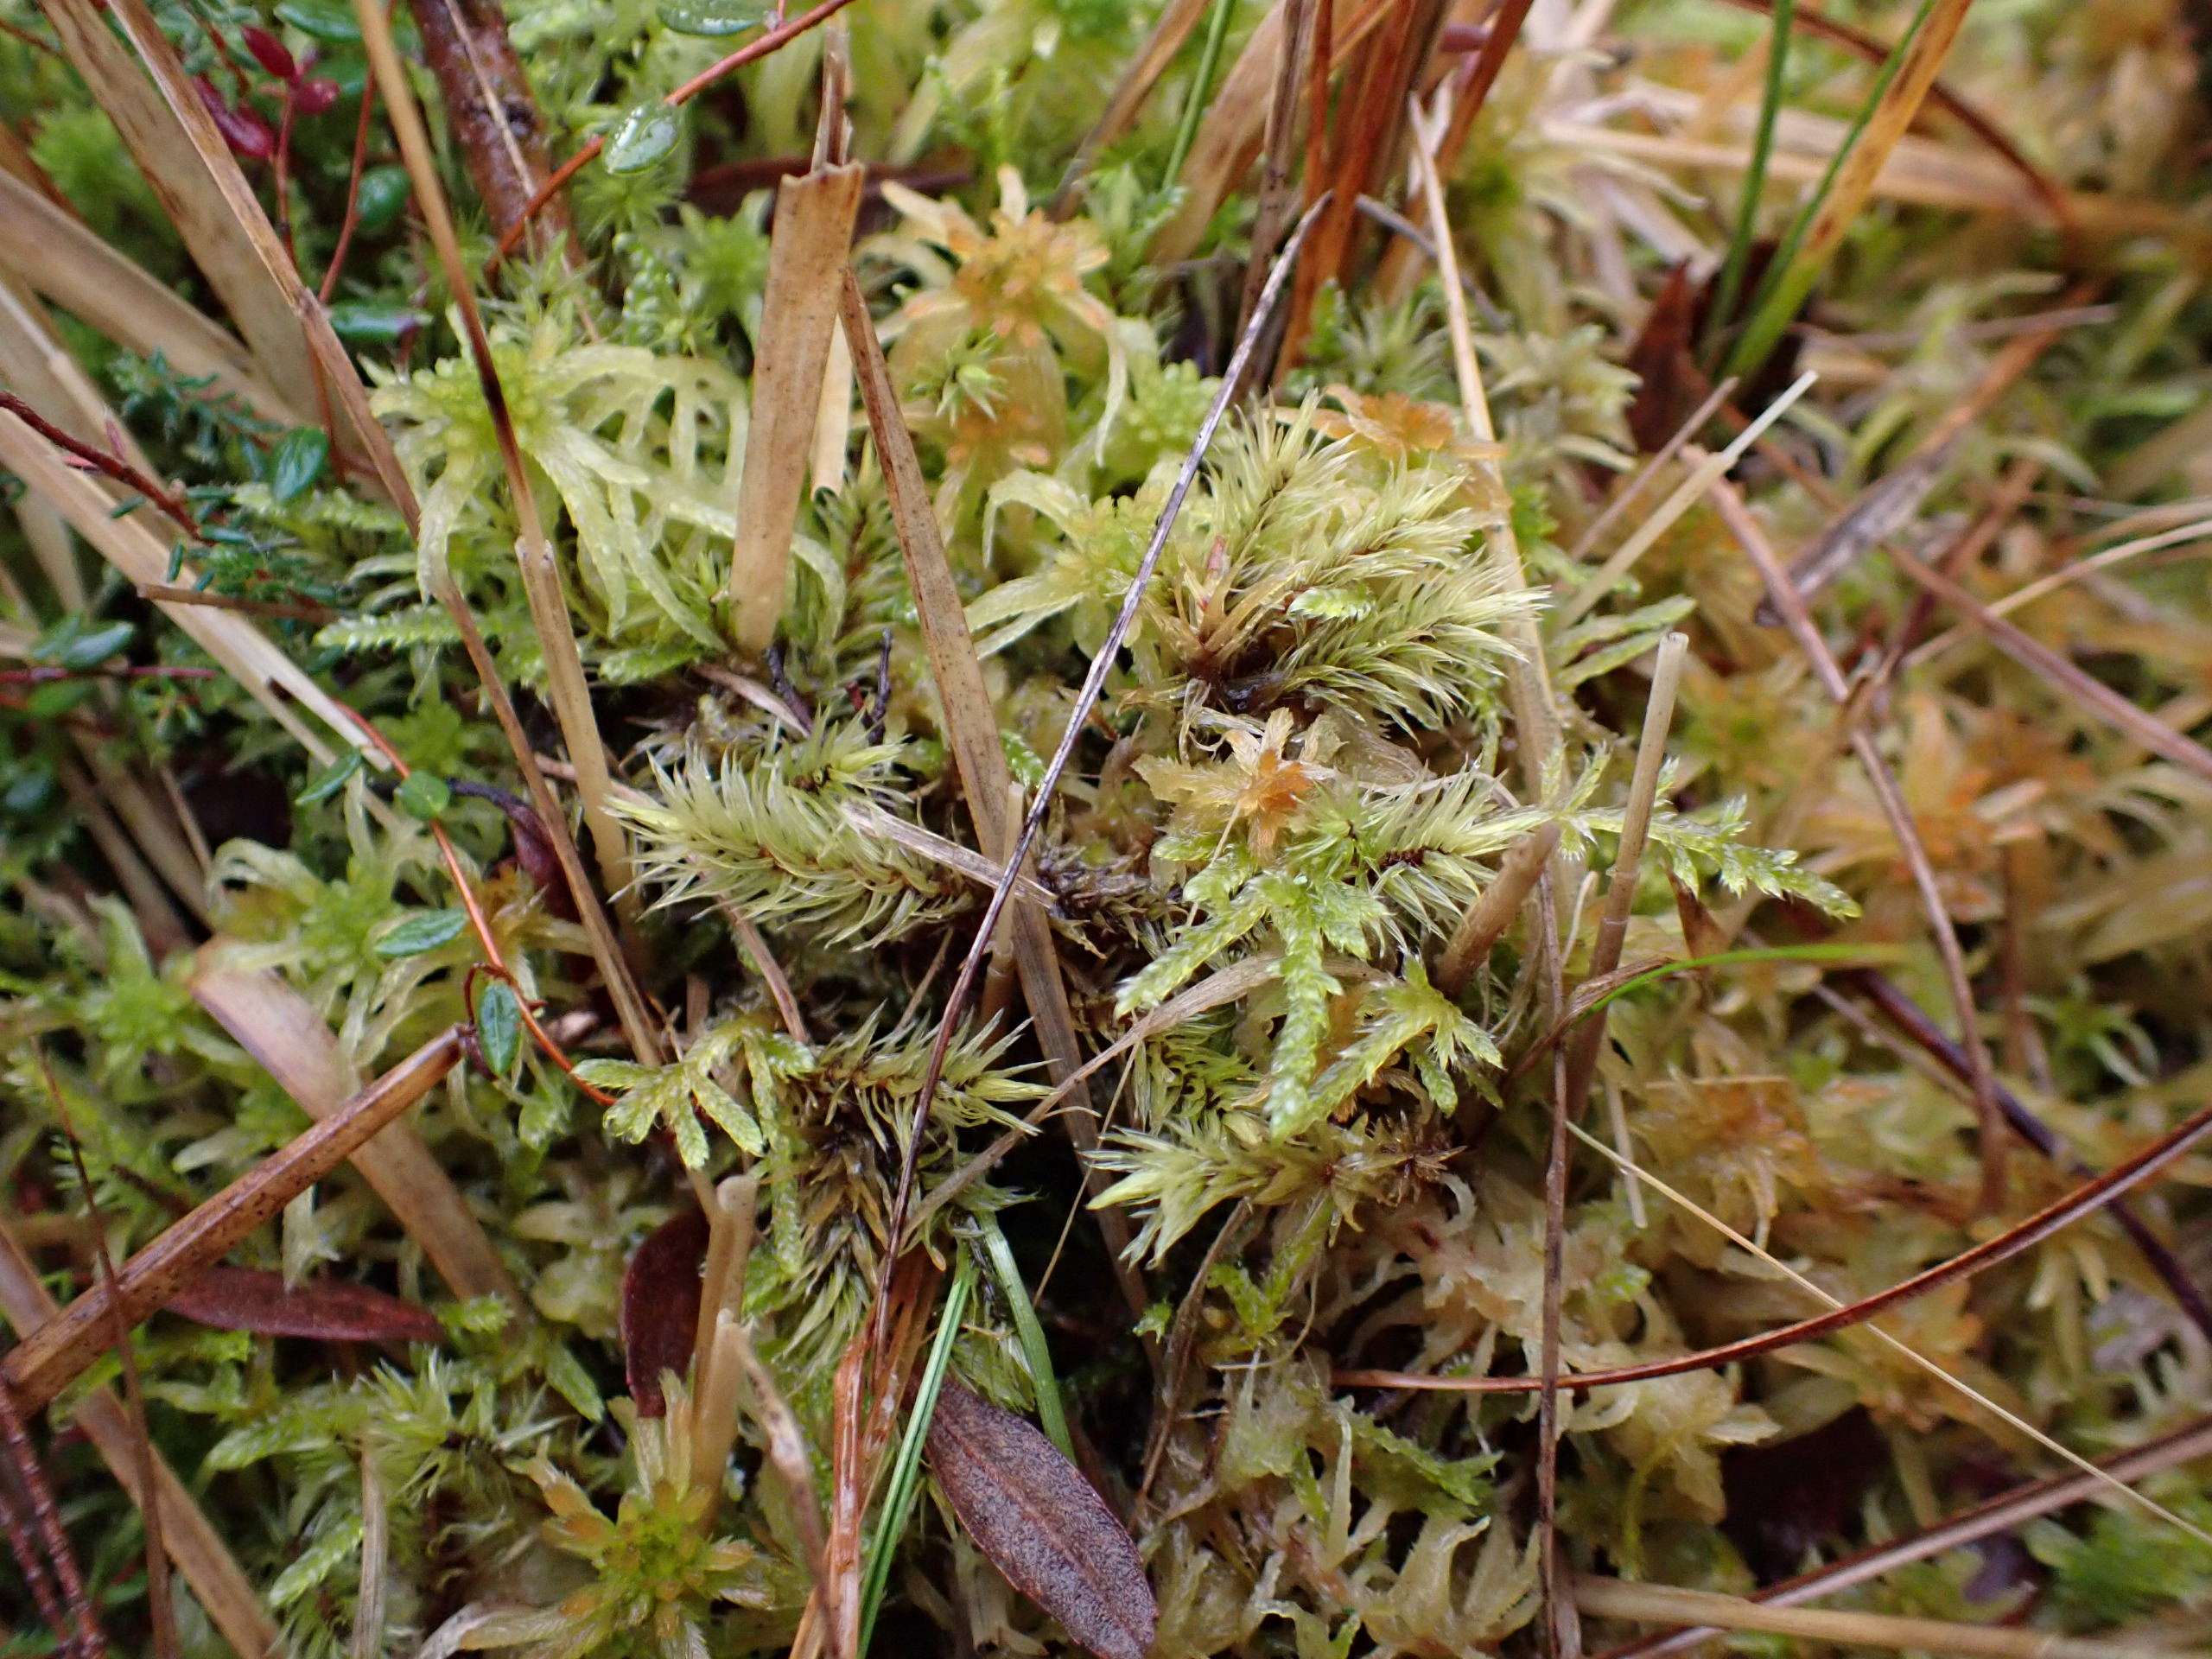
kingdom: Plantae
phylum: Bryophyta
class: Bryopsida
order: Aulacomniales
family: Aulacomniaceae
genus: Aulacomnium
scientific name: Aulacomnium palustre
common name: Almindelig filtmos
